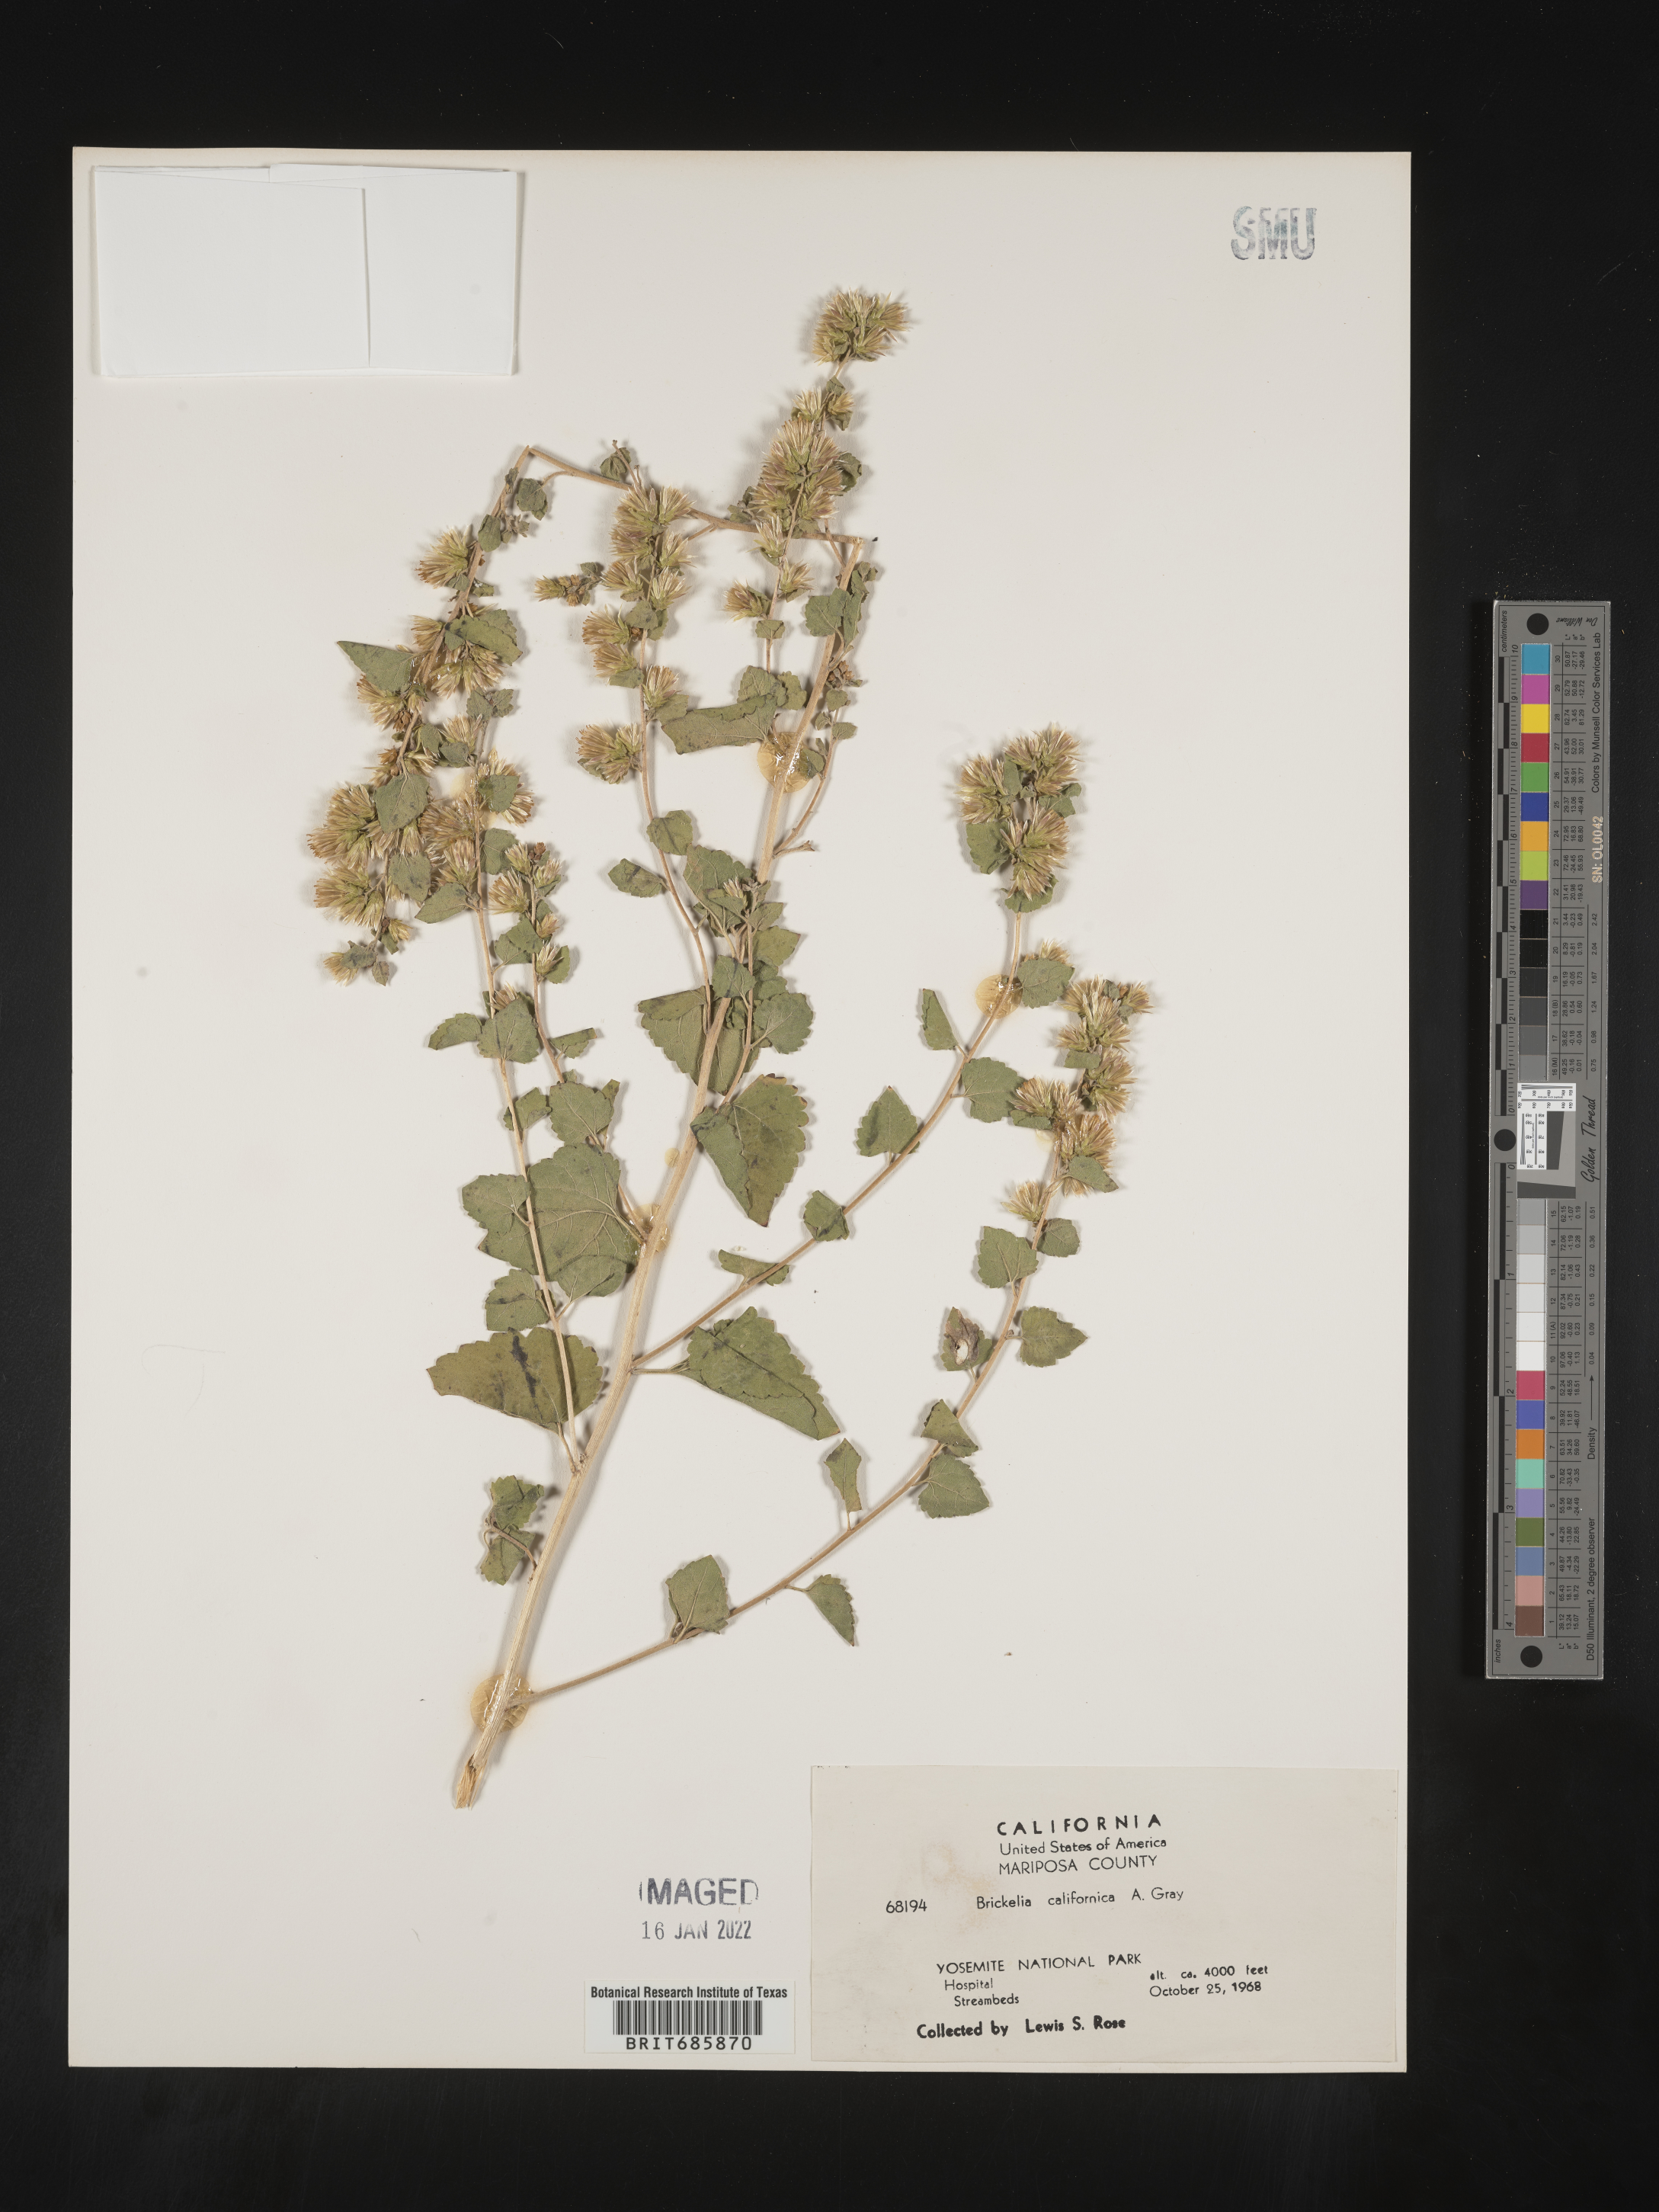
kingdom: Plantae
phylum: Tracheophyta
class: Magnoliopsida
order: Asterales
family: Asteraceae
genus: Brickellia
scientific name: Brickellia californica
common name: California brickellbush
